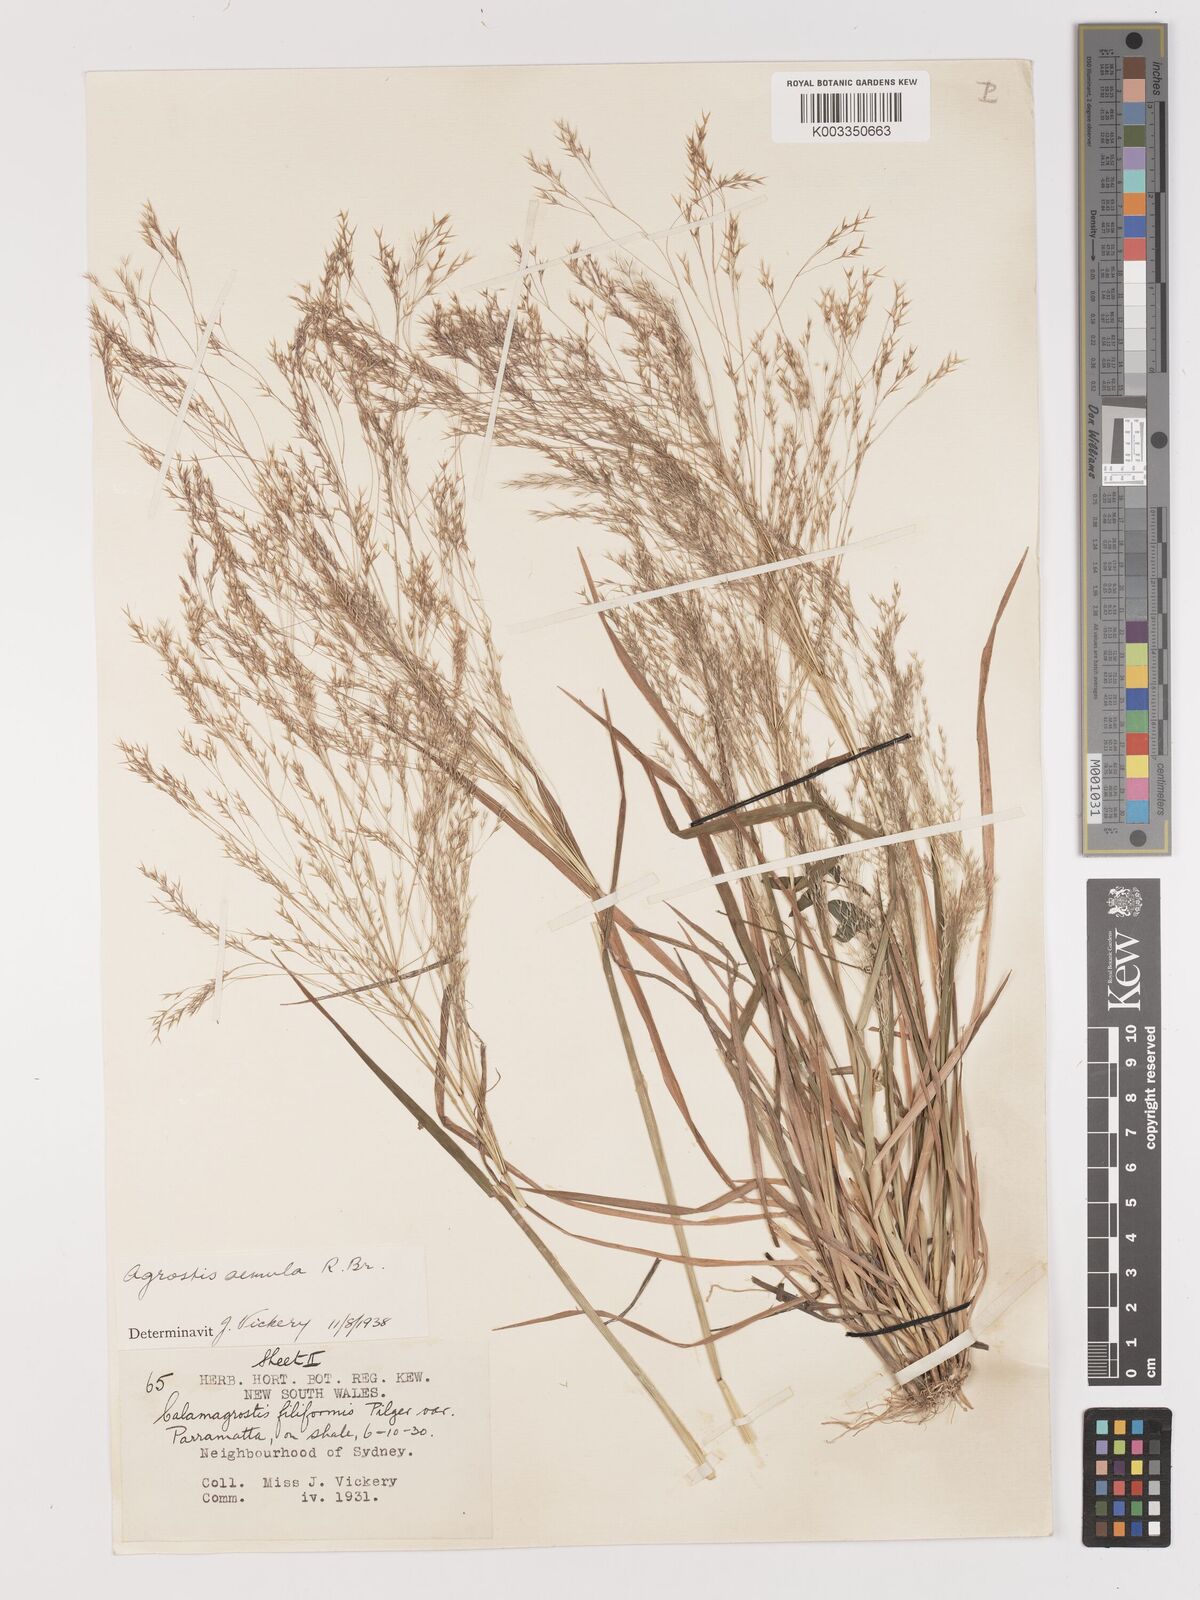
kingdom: Plantae
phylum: Tracheophyta
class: Liliopsida
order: Poales
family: Poaceae
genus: Lachnagrostis
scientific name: Lachnagrostis aemula
